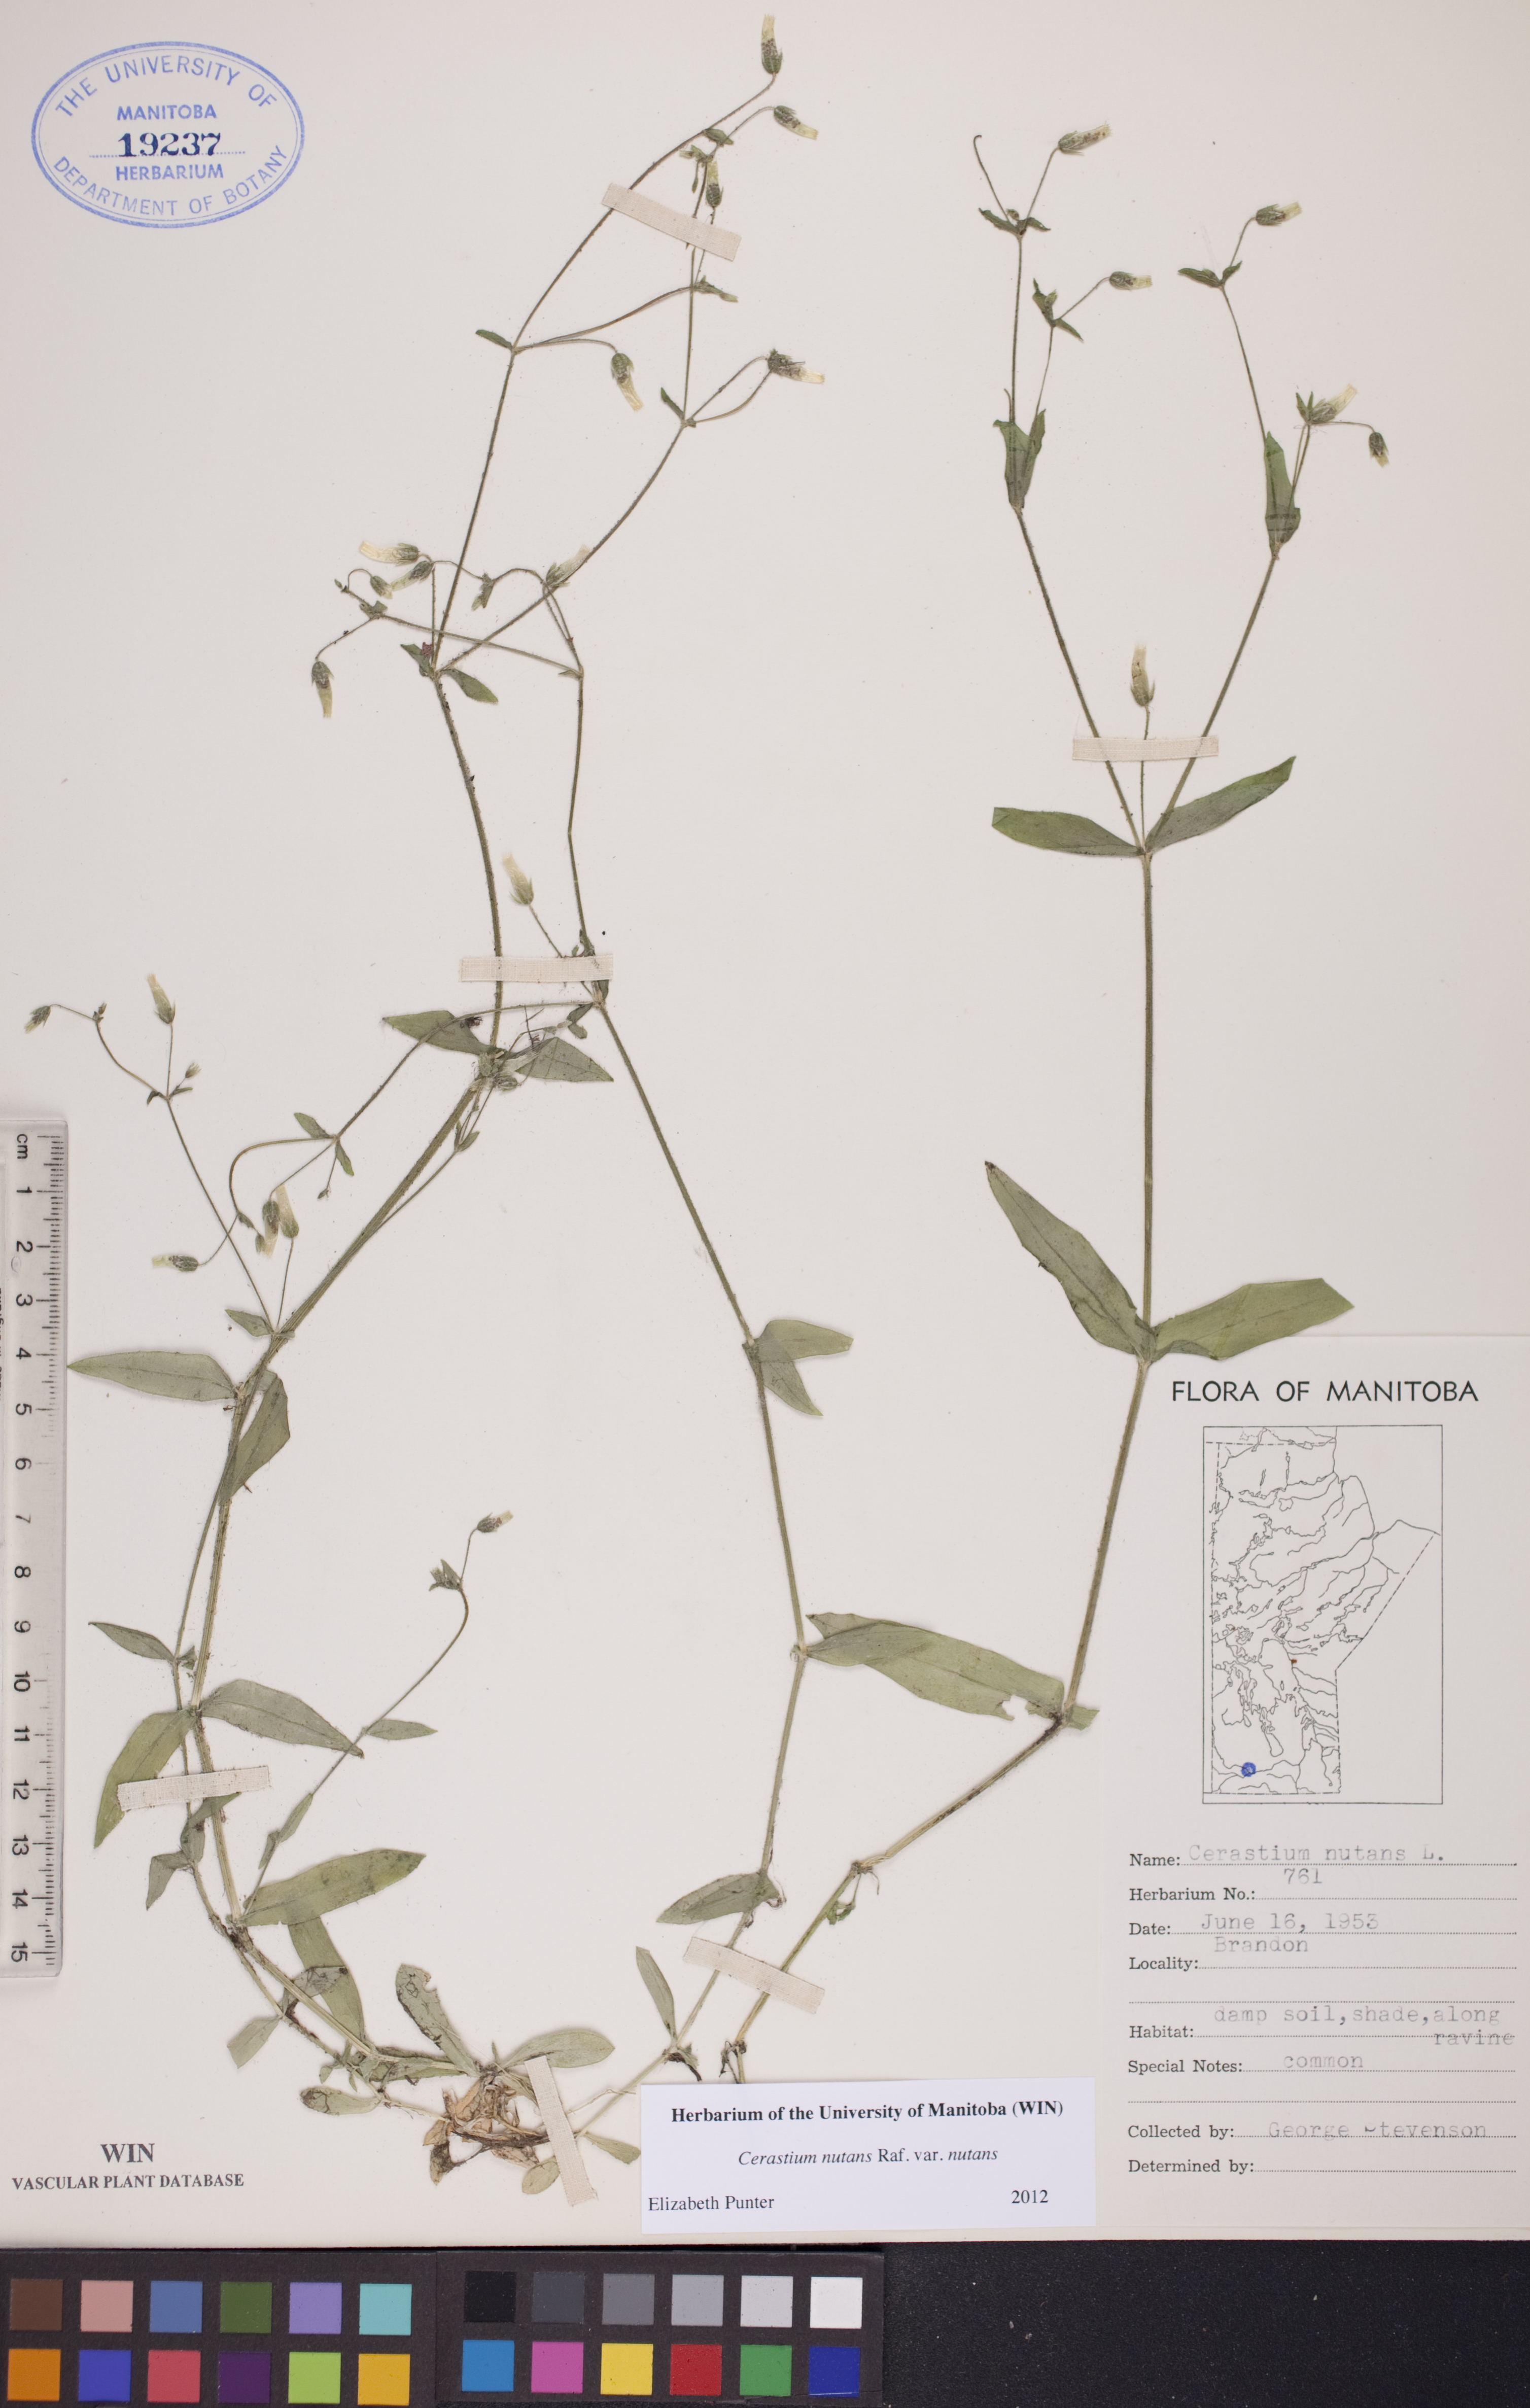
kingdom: Plantae
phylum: Tracheophyta
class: Magnoliopsida
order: Caryophyllales
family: Caryophyllaceae
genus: Cerastium
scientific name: Cerastium nutans
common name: Long-stalked chickweed
